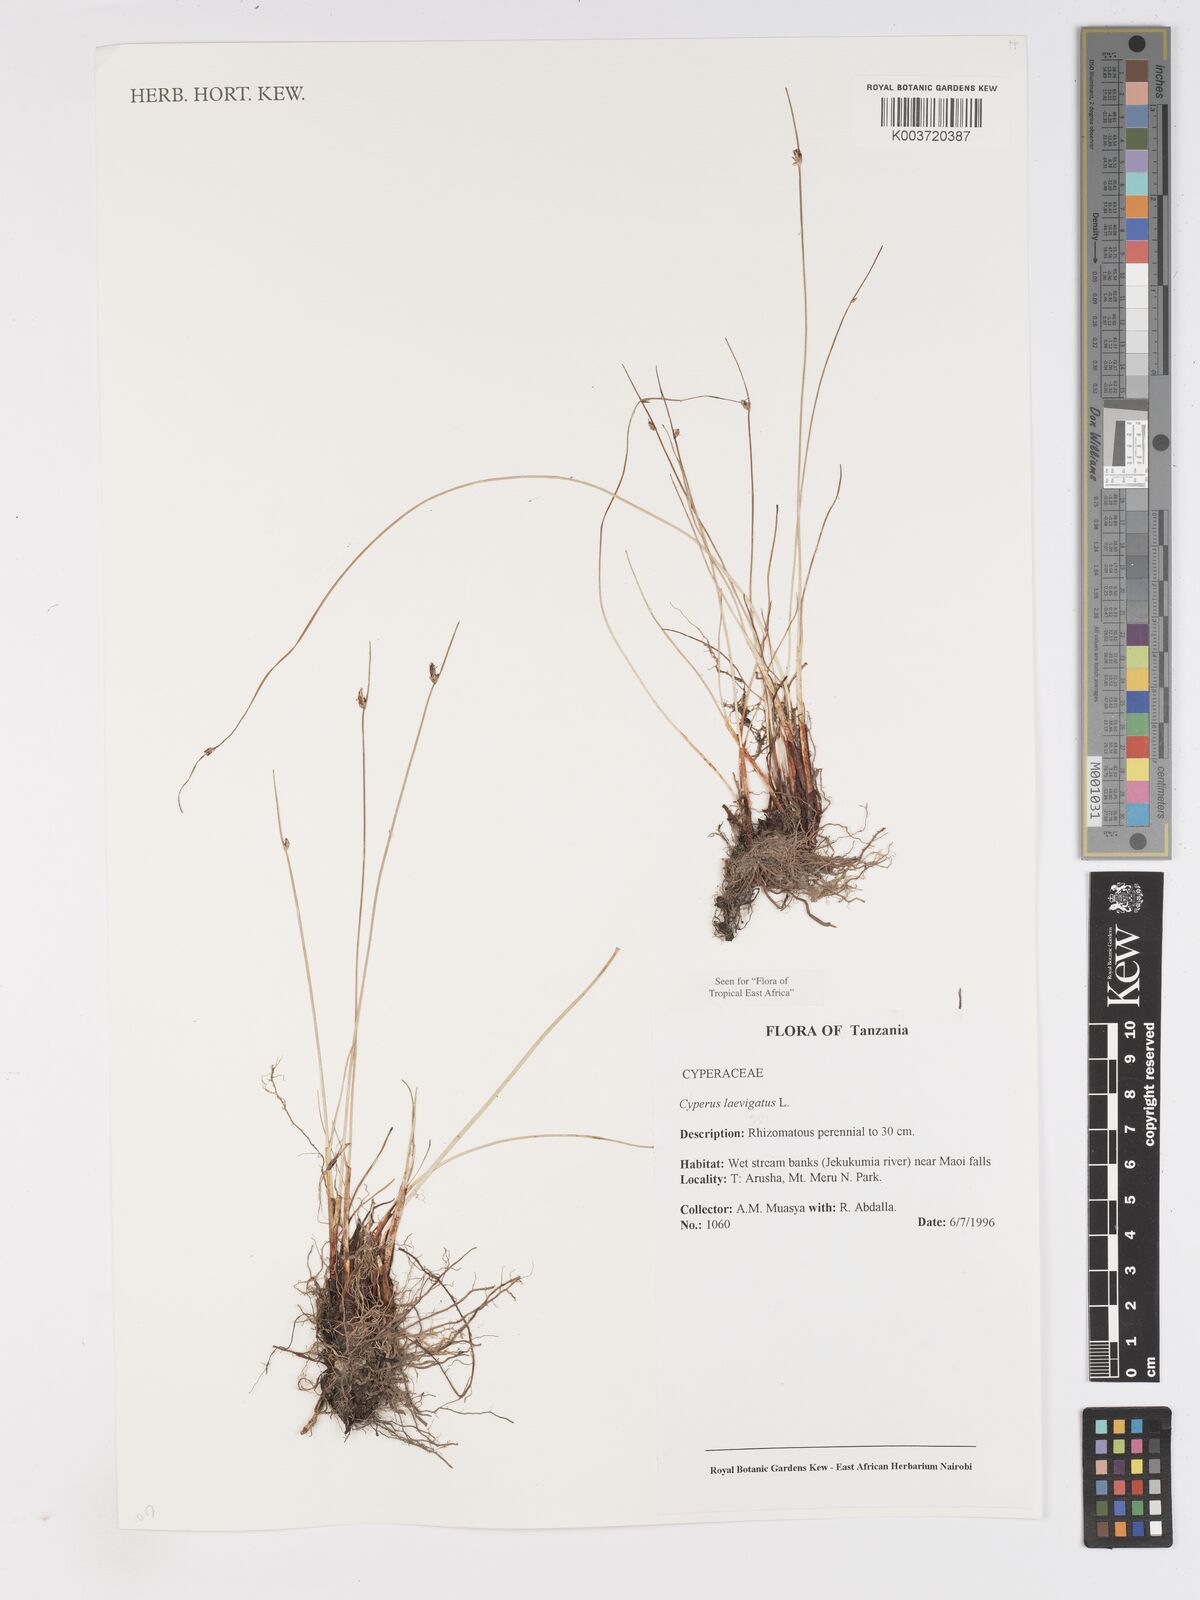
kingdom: Plantae
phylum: Tracheophyta
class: Liliopsida
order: Poales
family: Cyperaceae
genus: Cyperus
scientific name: Cyperus laevigatus
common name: Smooth flat sedge
